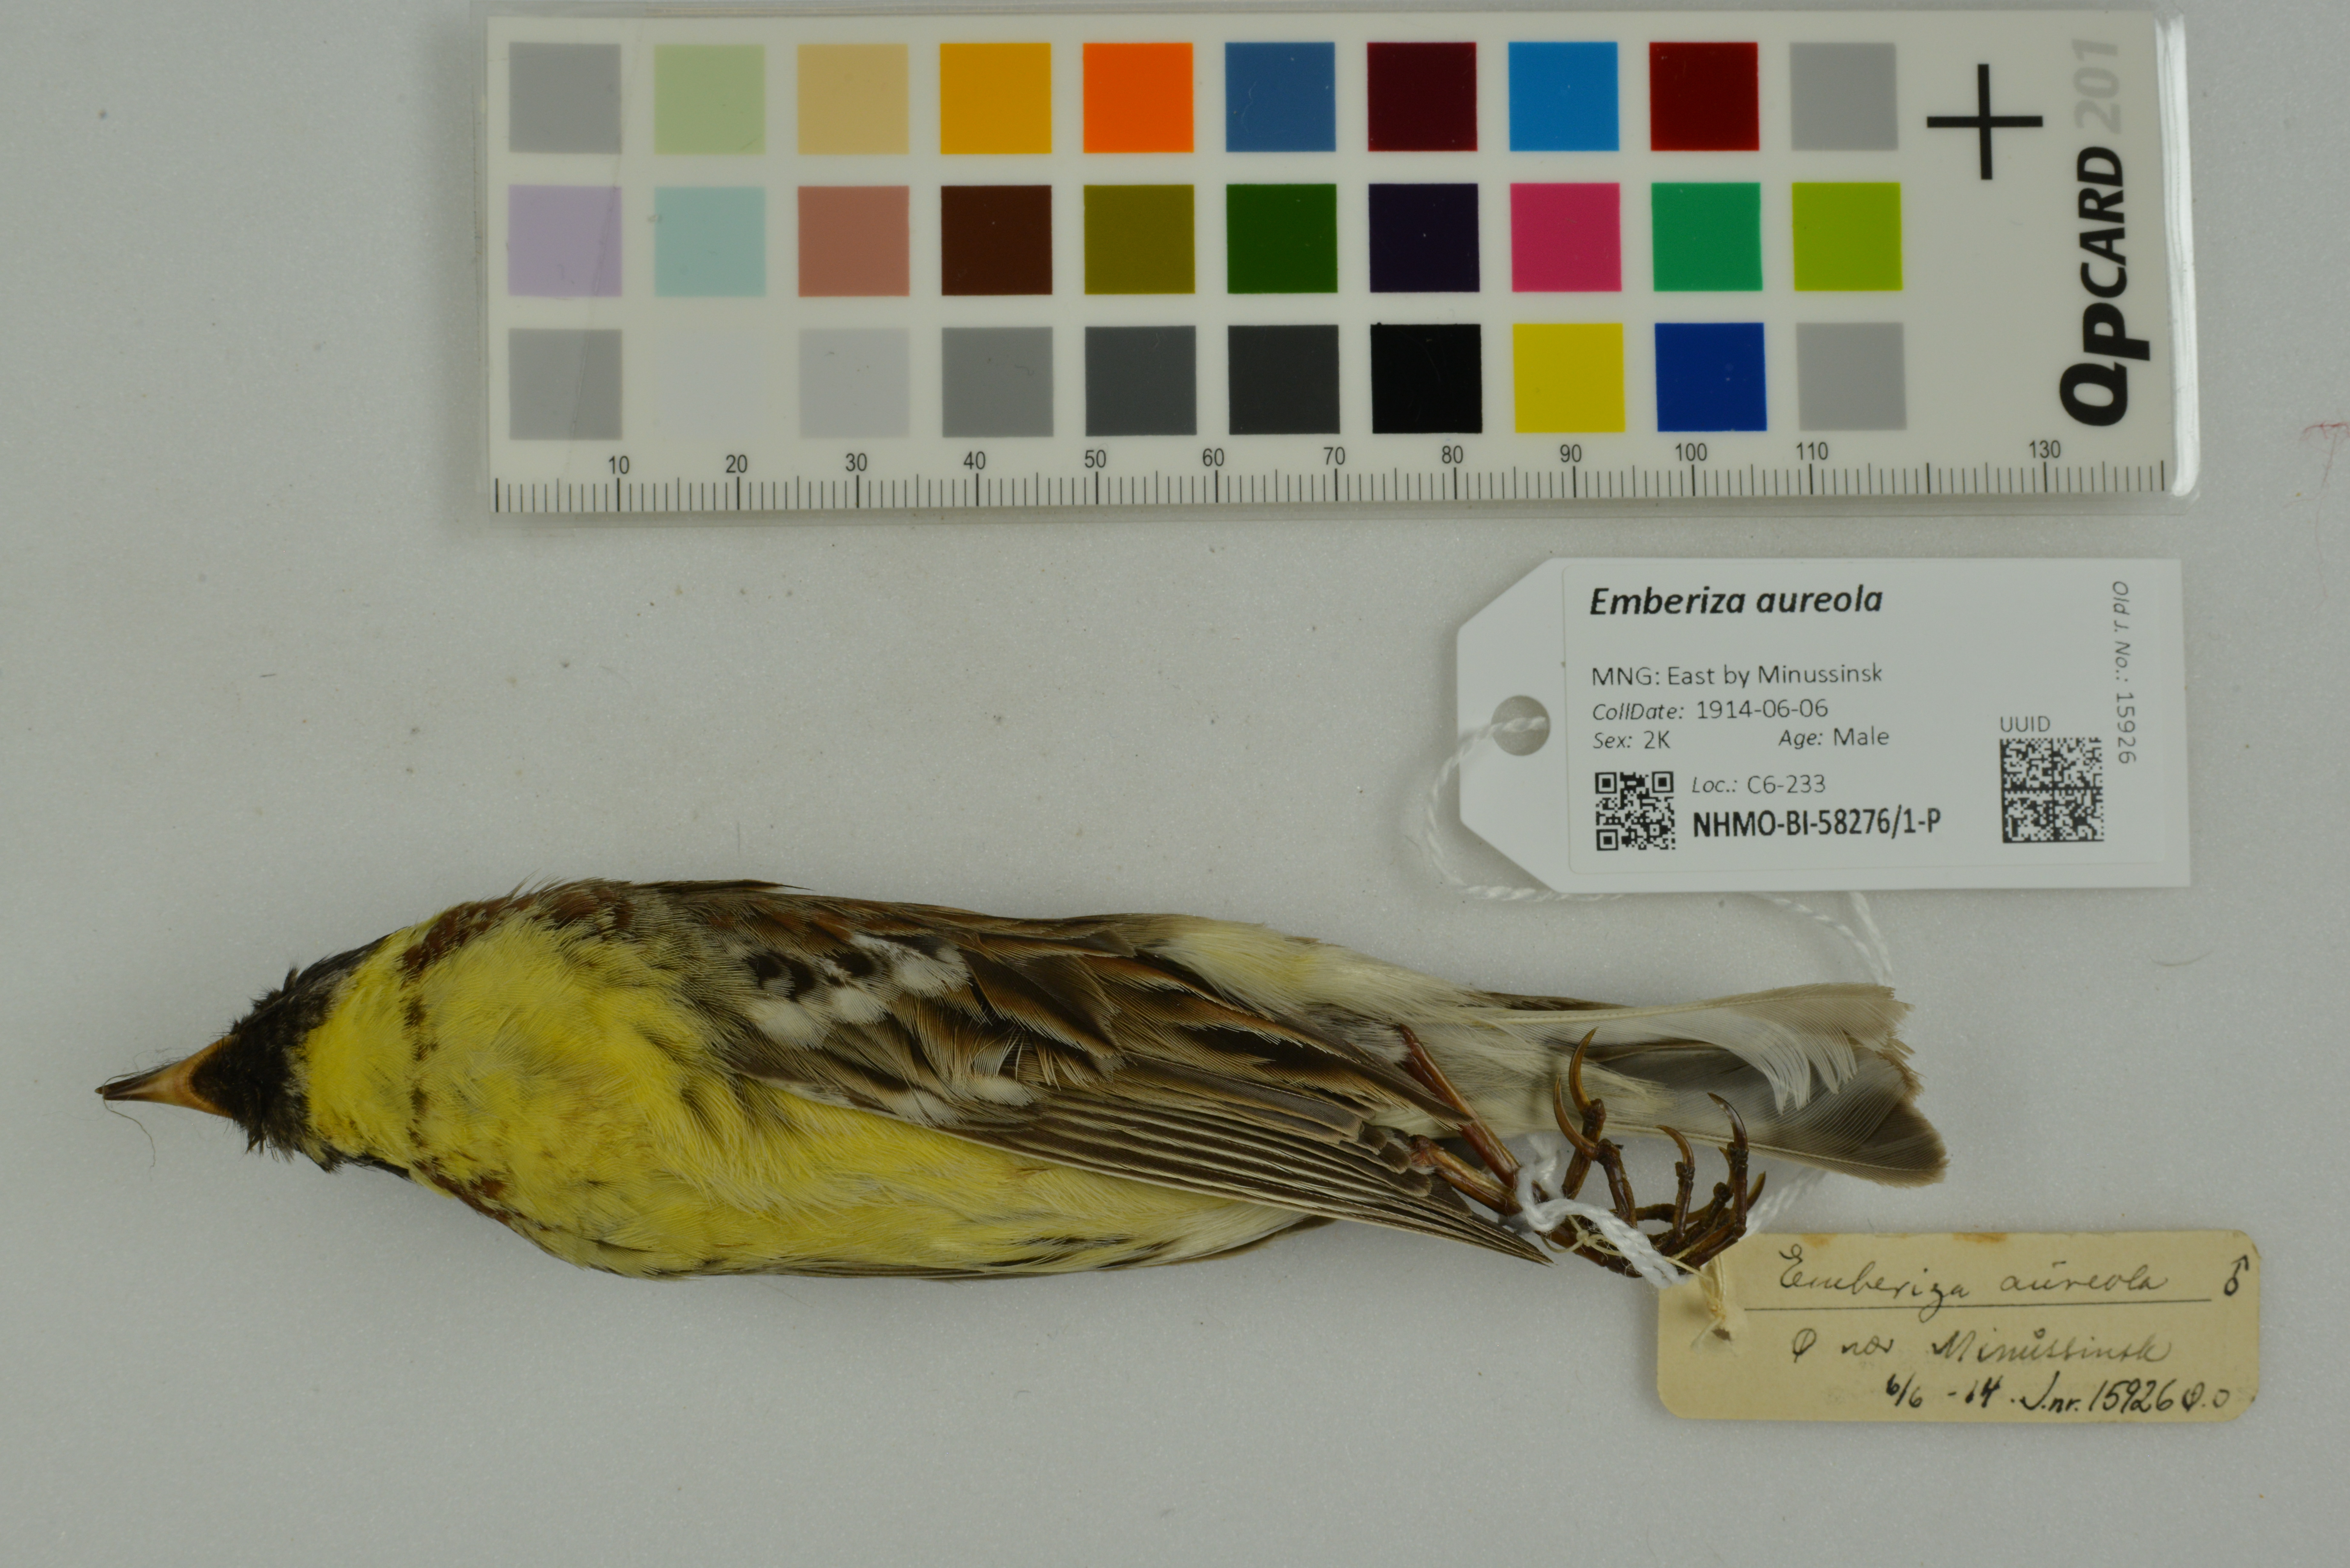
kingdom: Animalia
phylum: Chordata
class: Aves
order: Passeriformes
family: Emberizidae
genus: Emberiza
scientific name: Emberiza aureola
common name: Yellow-breasted bunting
